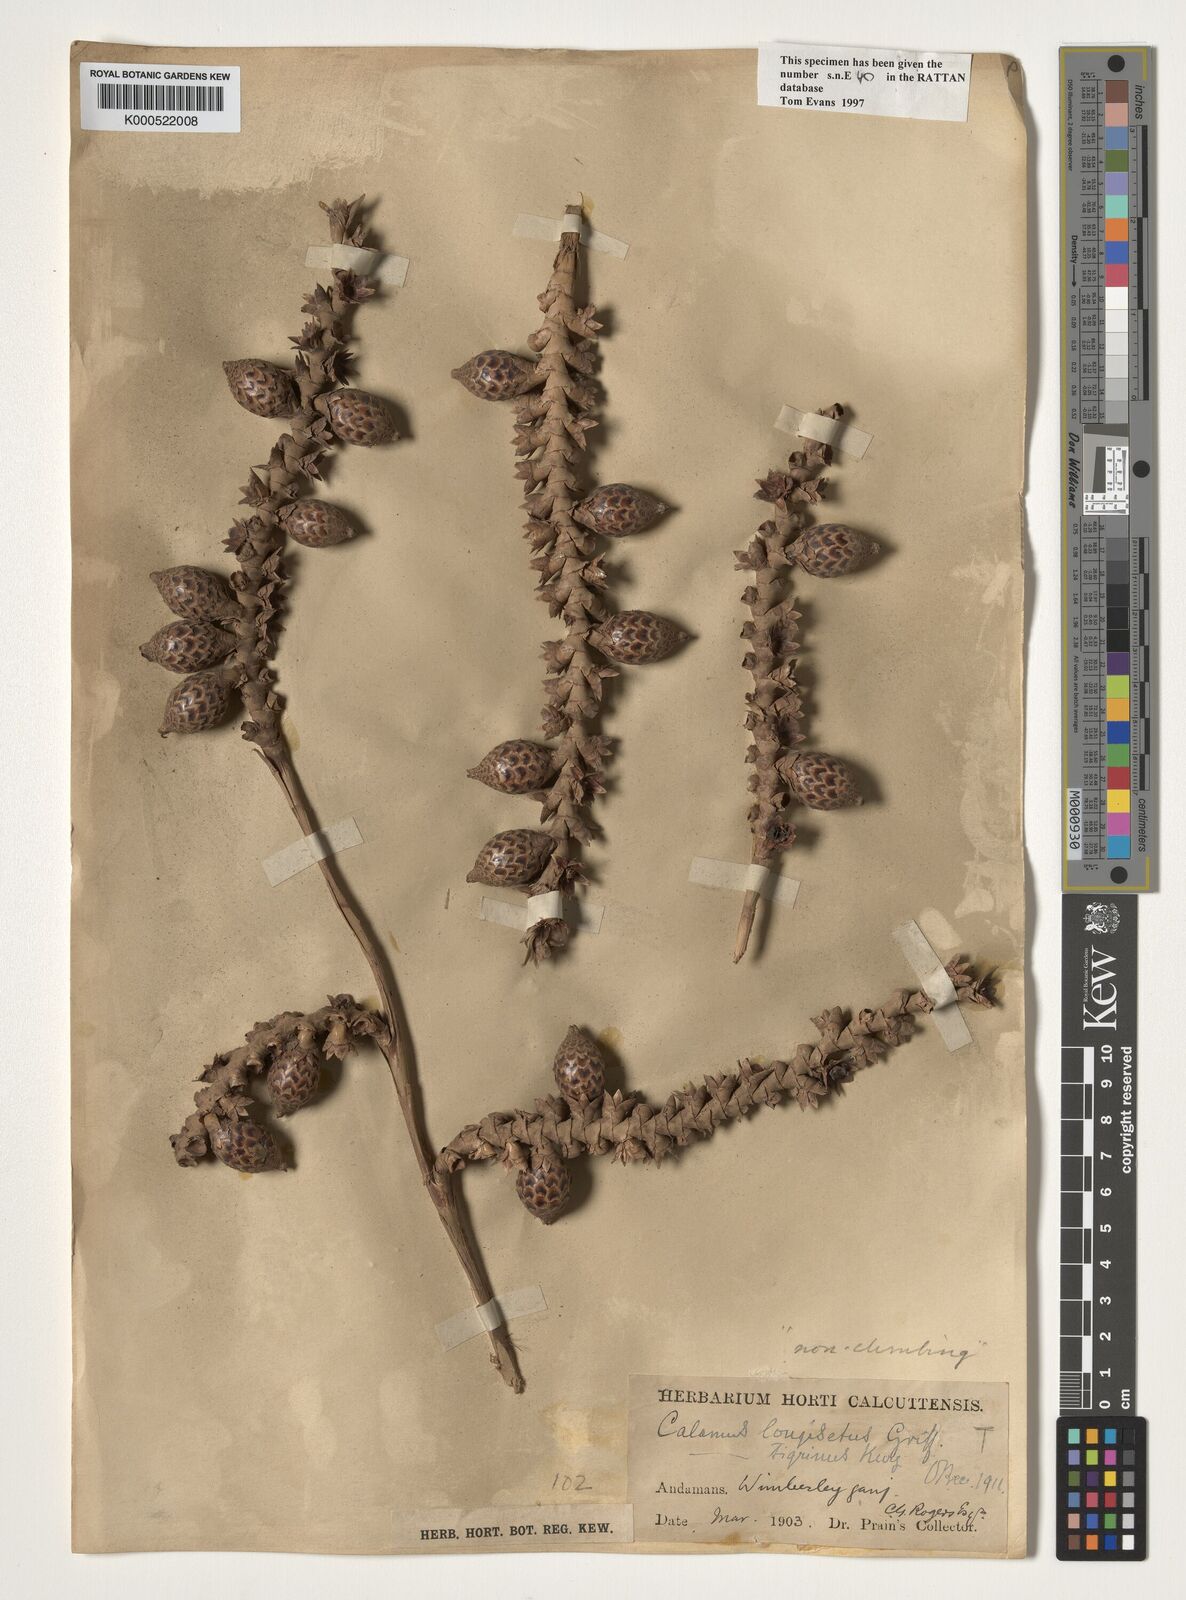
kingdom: Plantae
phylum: Tracheophyta
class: Liliopsida
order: Arecales
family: Arecaceae
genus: Calamus
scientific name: Calamus longisetus
